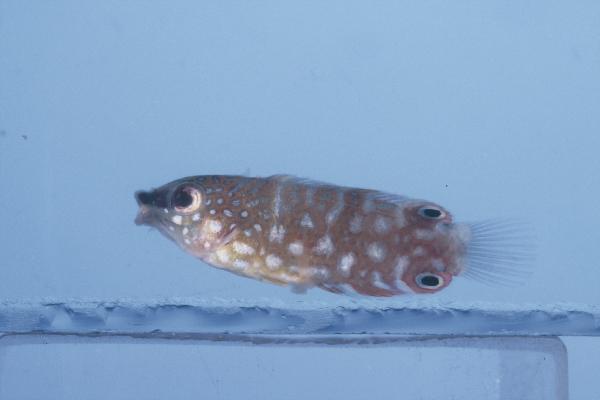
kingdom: Animalia
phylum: Chordata
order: Perciformes
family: Labridae
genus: Anampses
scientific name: Anampses twistii
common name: Yellowbreasted wrasse
